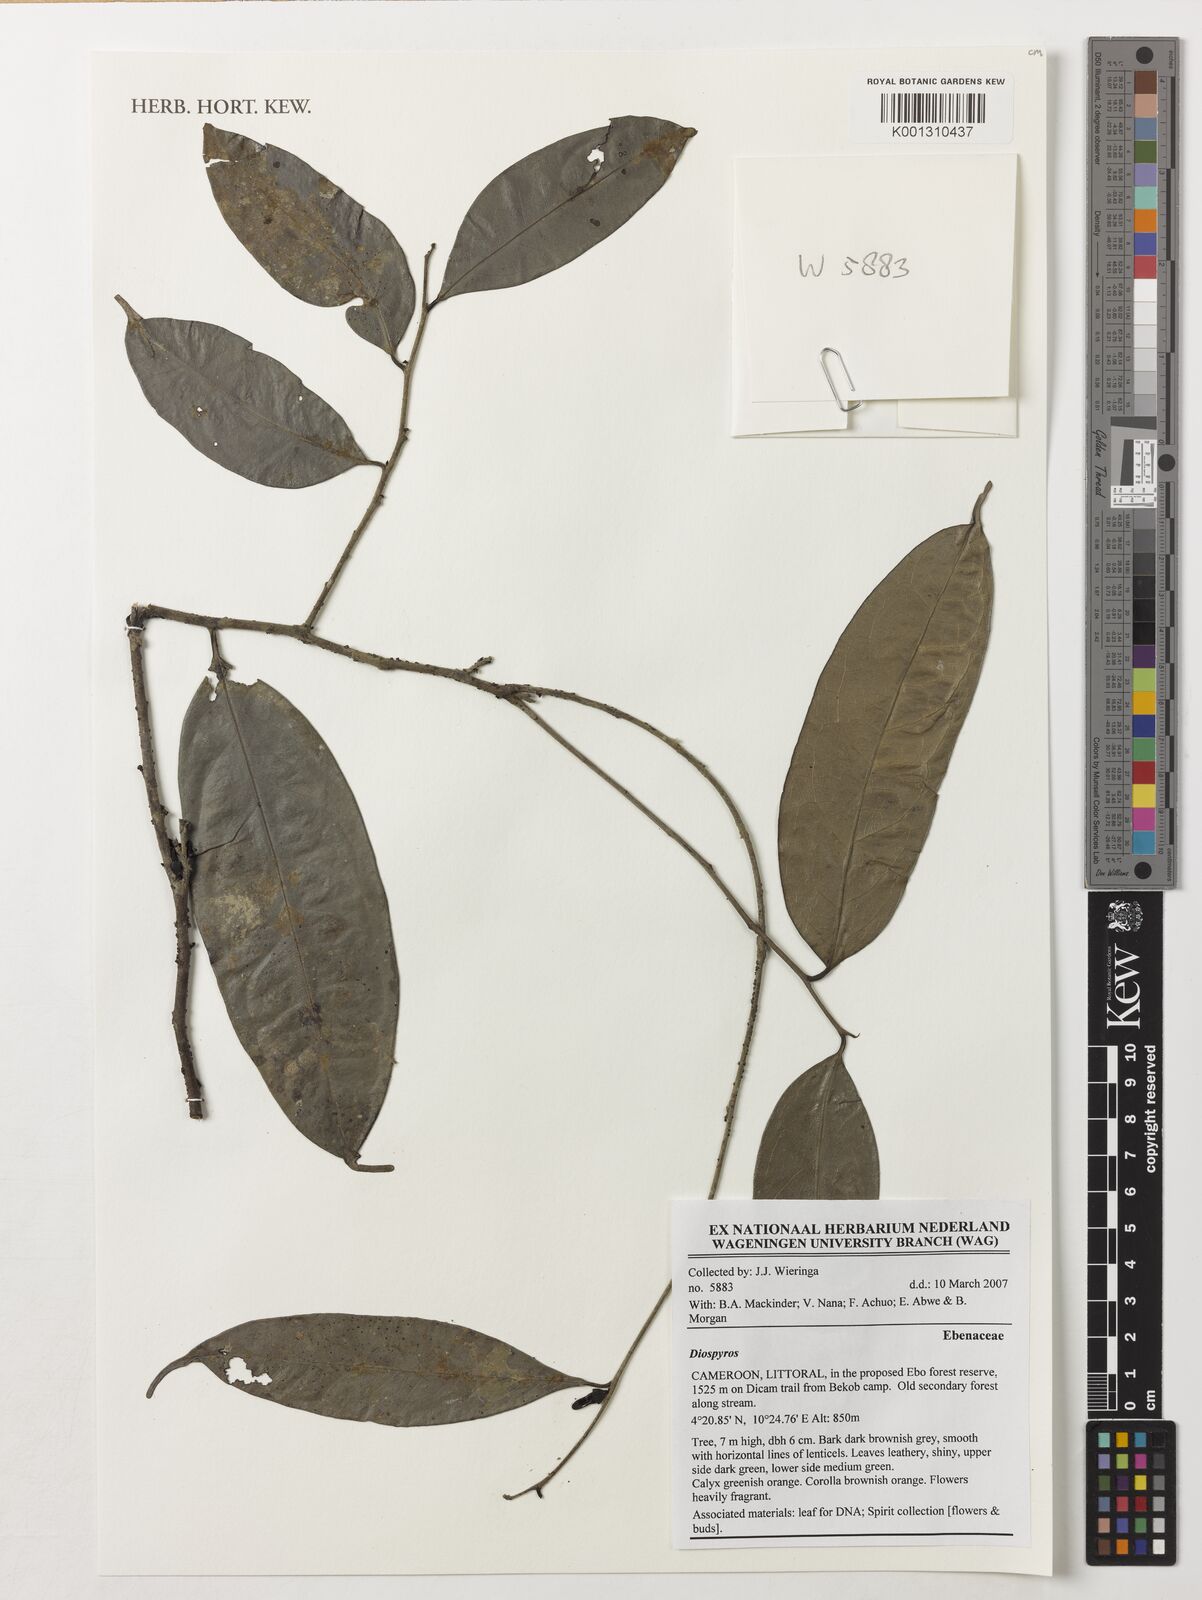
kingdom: Plantae
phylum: Tracheophyta
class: Magnoliopsida
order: Ericales
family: Ebenaceae
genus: Diospyros
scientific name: Diospyros
